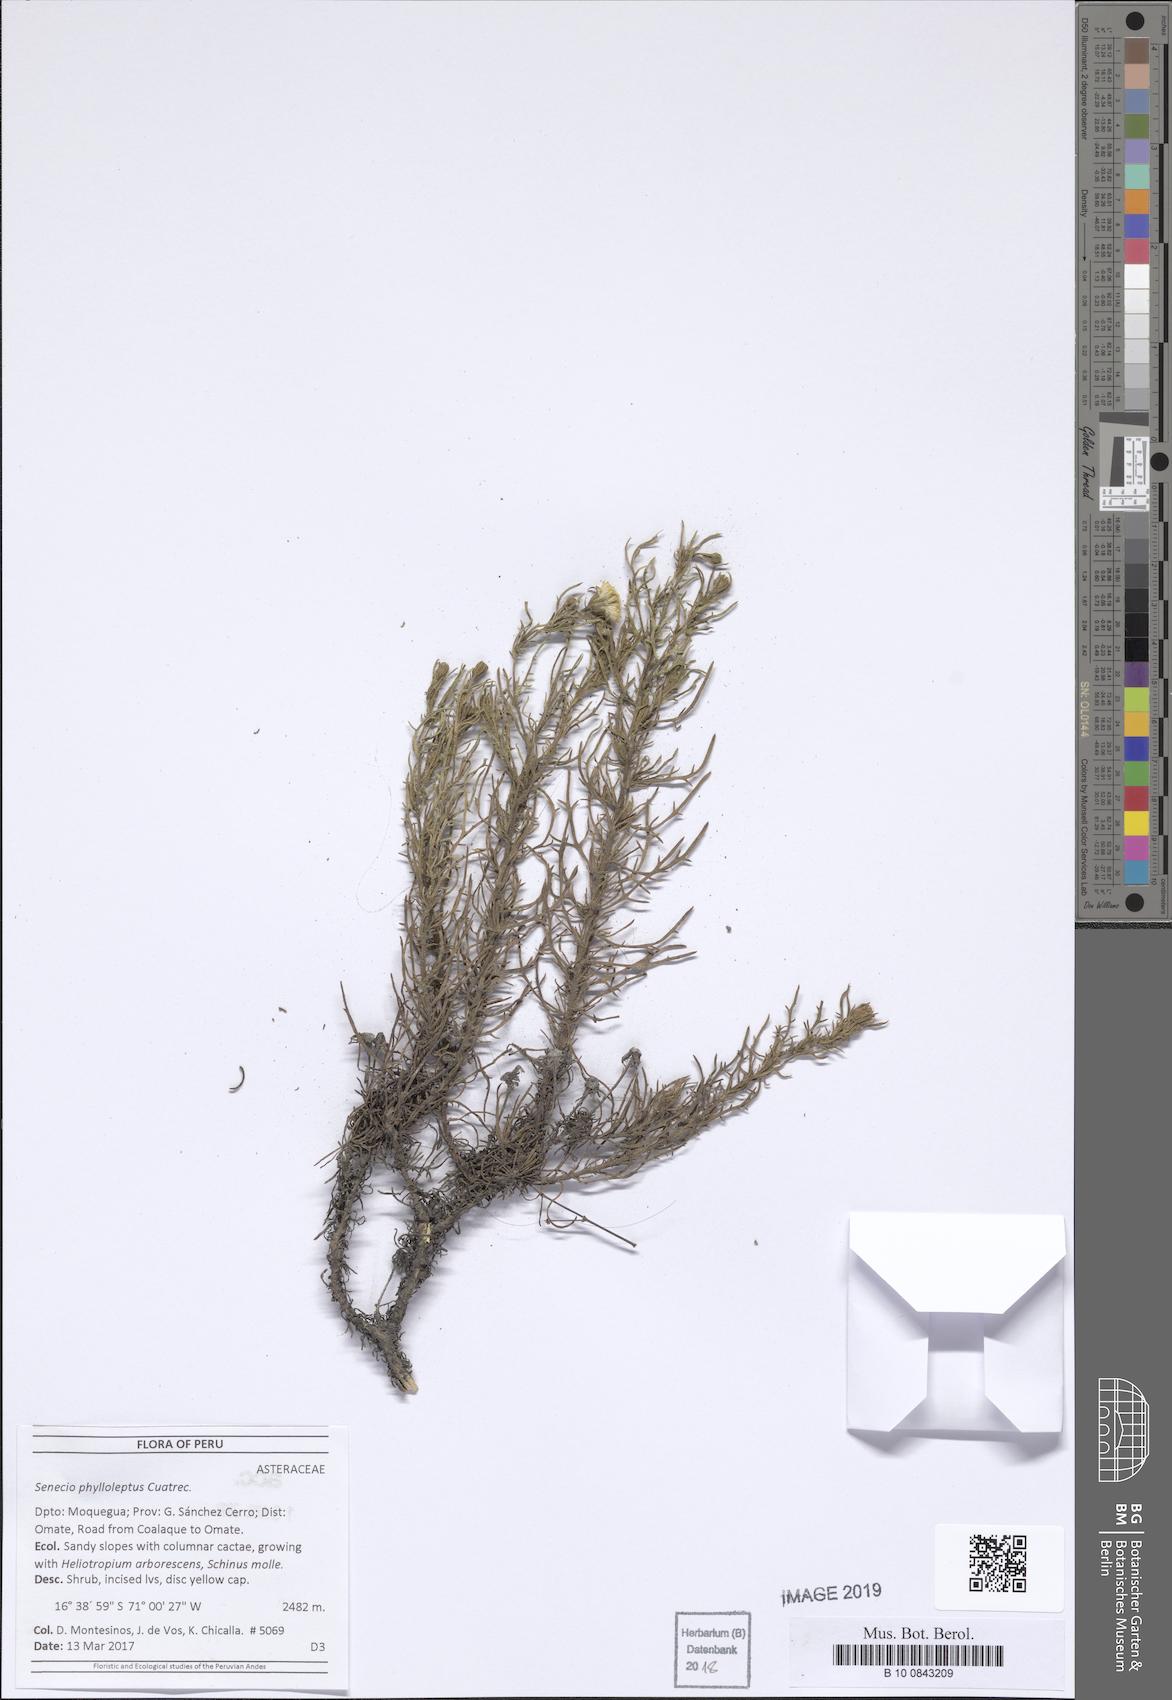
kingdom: Plantae
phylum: Tracheophyta
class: Magnoliopsida
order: Asterales
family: Asteraceae
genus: Senecio
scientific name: Senecio phylloleptus
